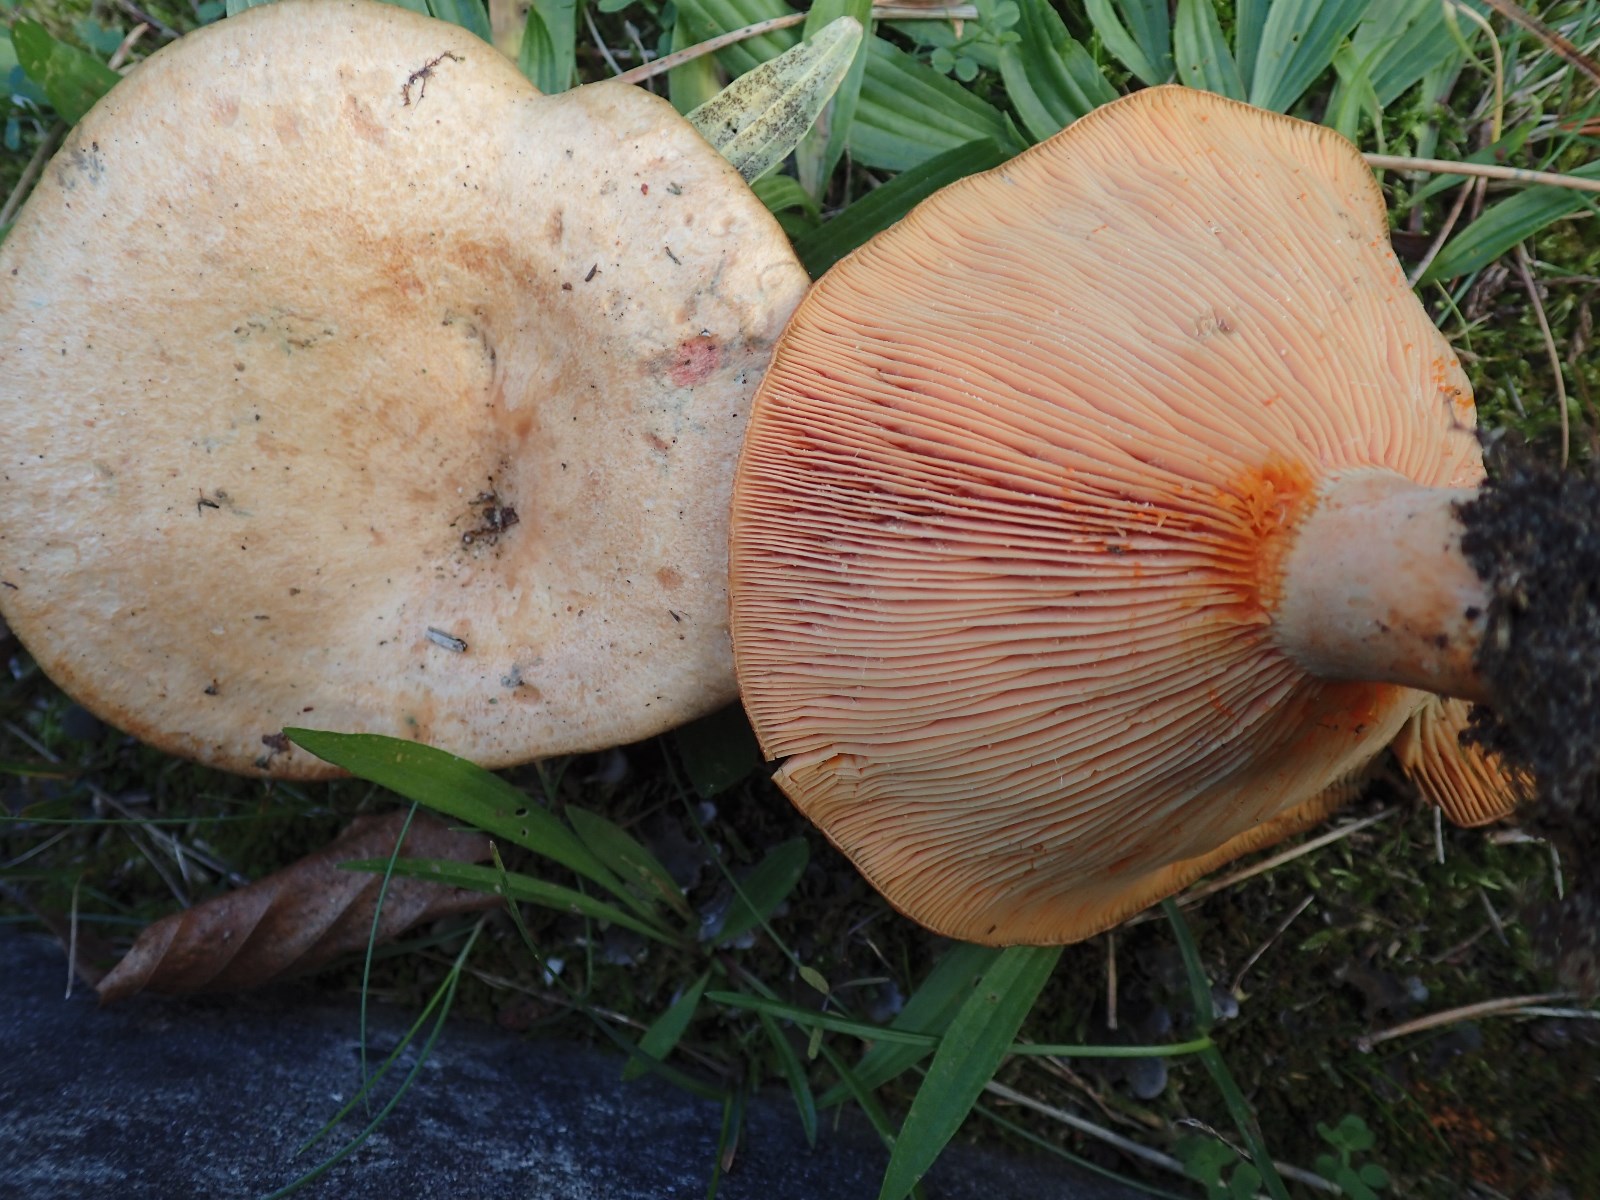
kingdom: Fungi
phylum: Basidiomycota
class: Agaricomycetes
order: Russulales
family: Russulaceae
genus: Lactarius
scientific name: Lactarius deterrimus
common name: gran-mælkehat
